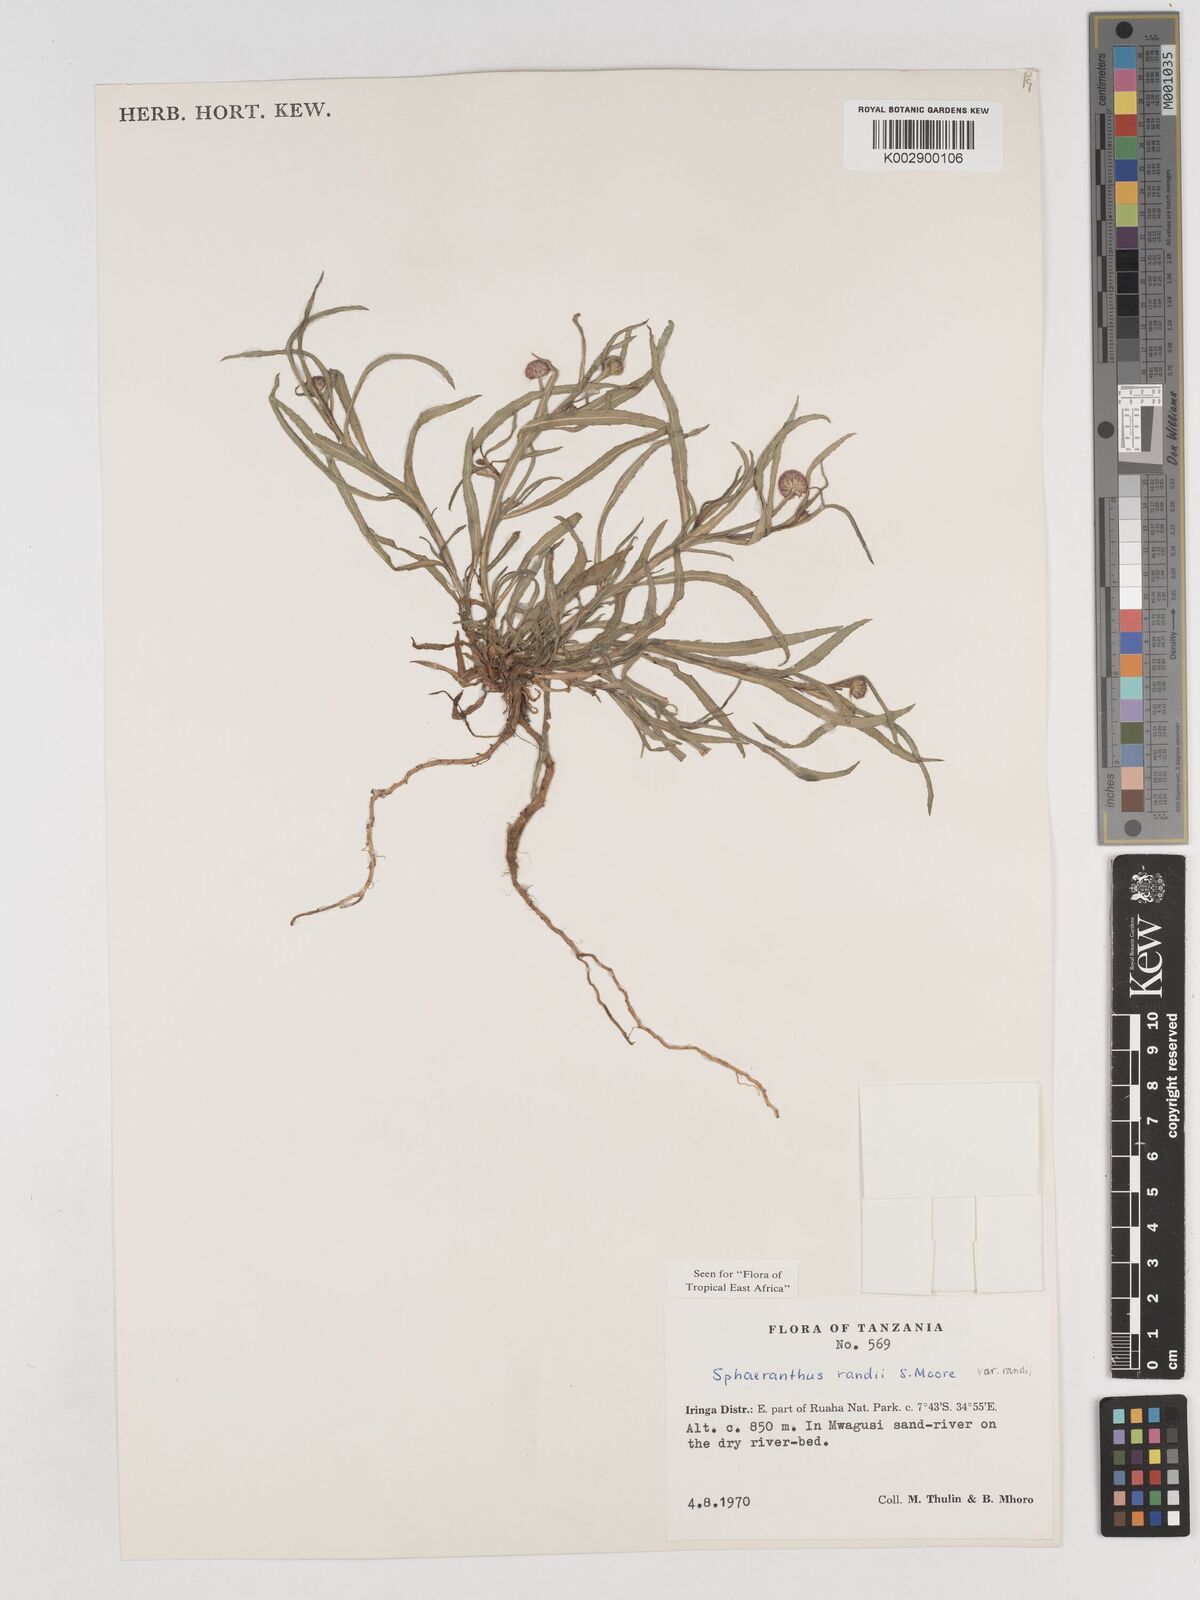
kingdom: Plantae
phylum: Tracheophyta
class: Magnoliopsida
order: Asterales
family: Asteraceae
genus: Sphaeranthus
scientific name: Sphaeranthus randii
